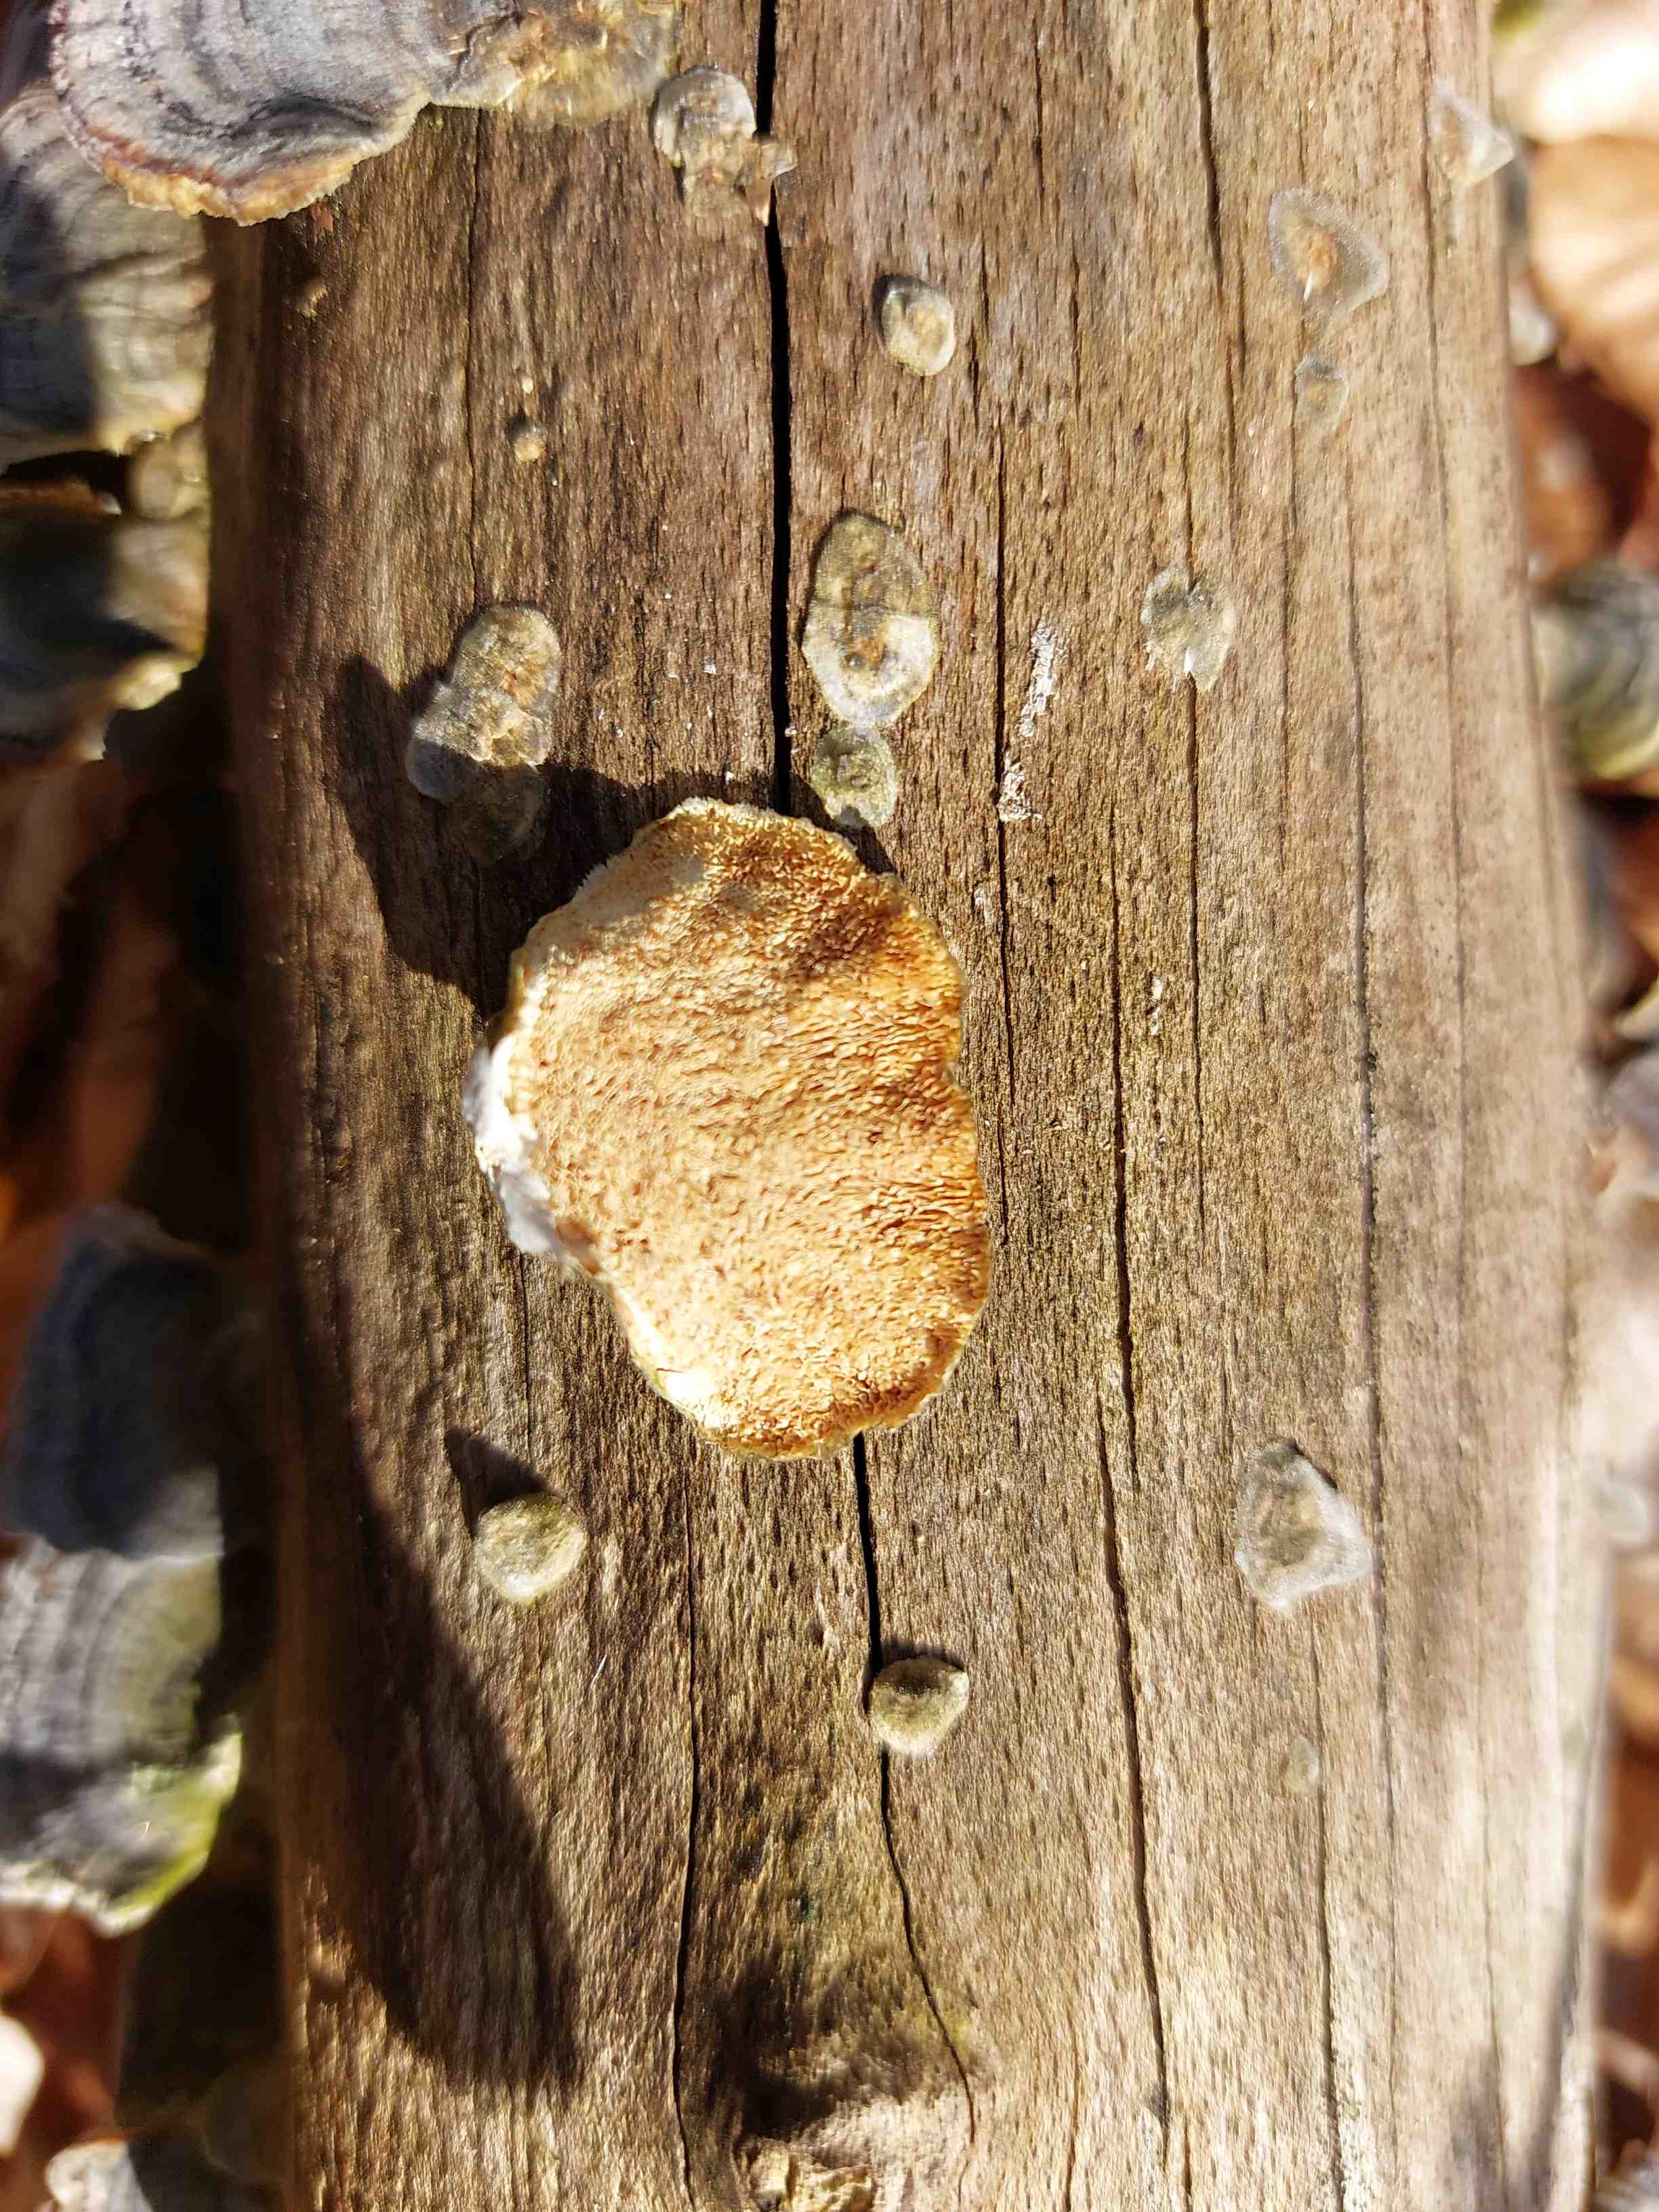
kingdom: Fungi
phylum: Basidiomycota
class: Agaricomycetes
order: Polyporales
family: Polyporaceae
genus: Trametes
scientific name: Trametes versicolor
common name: broget læderporesvamp
